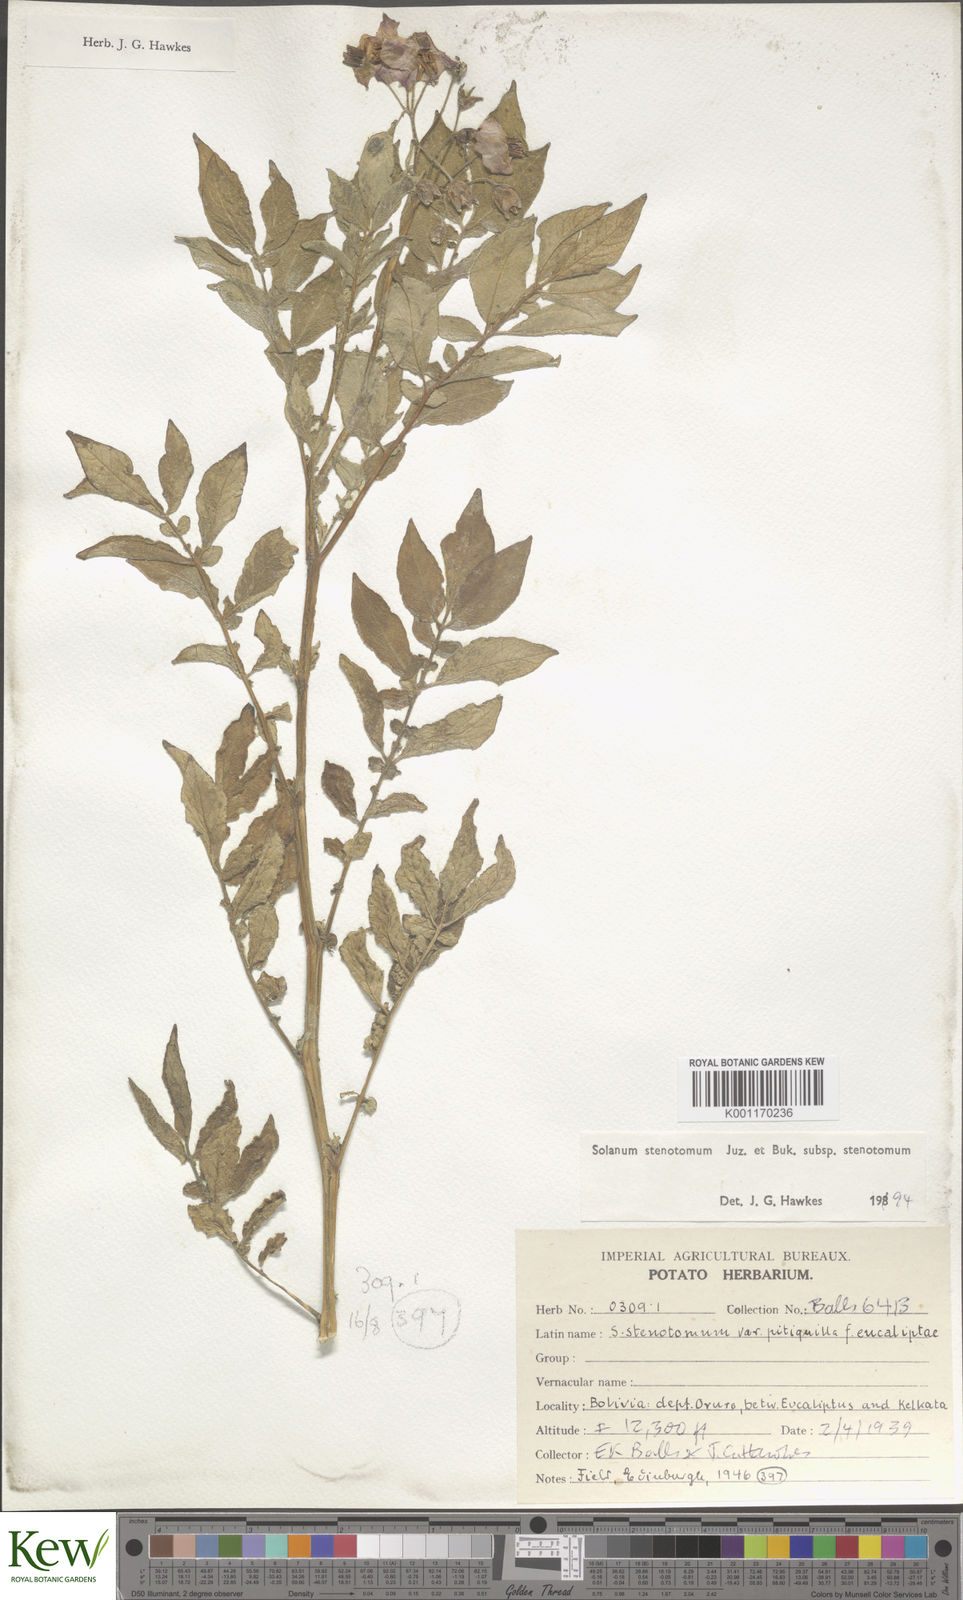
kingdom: Plantae
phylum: Tracheophyta
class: Magnoliopsida
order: Solanales
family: Solanaceae
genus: Solanum
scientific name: Solanum tuberosum
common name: Potato
